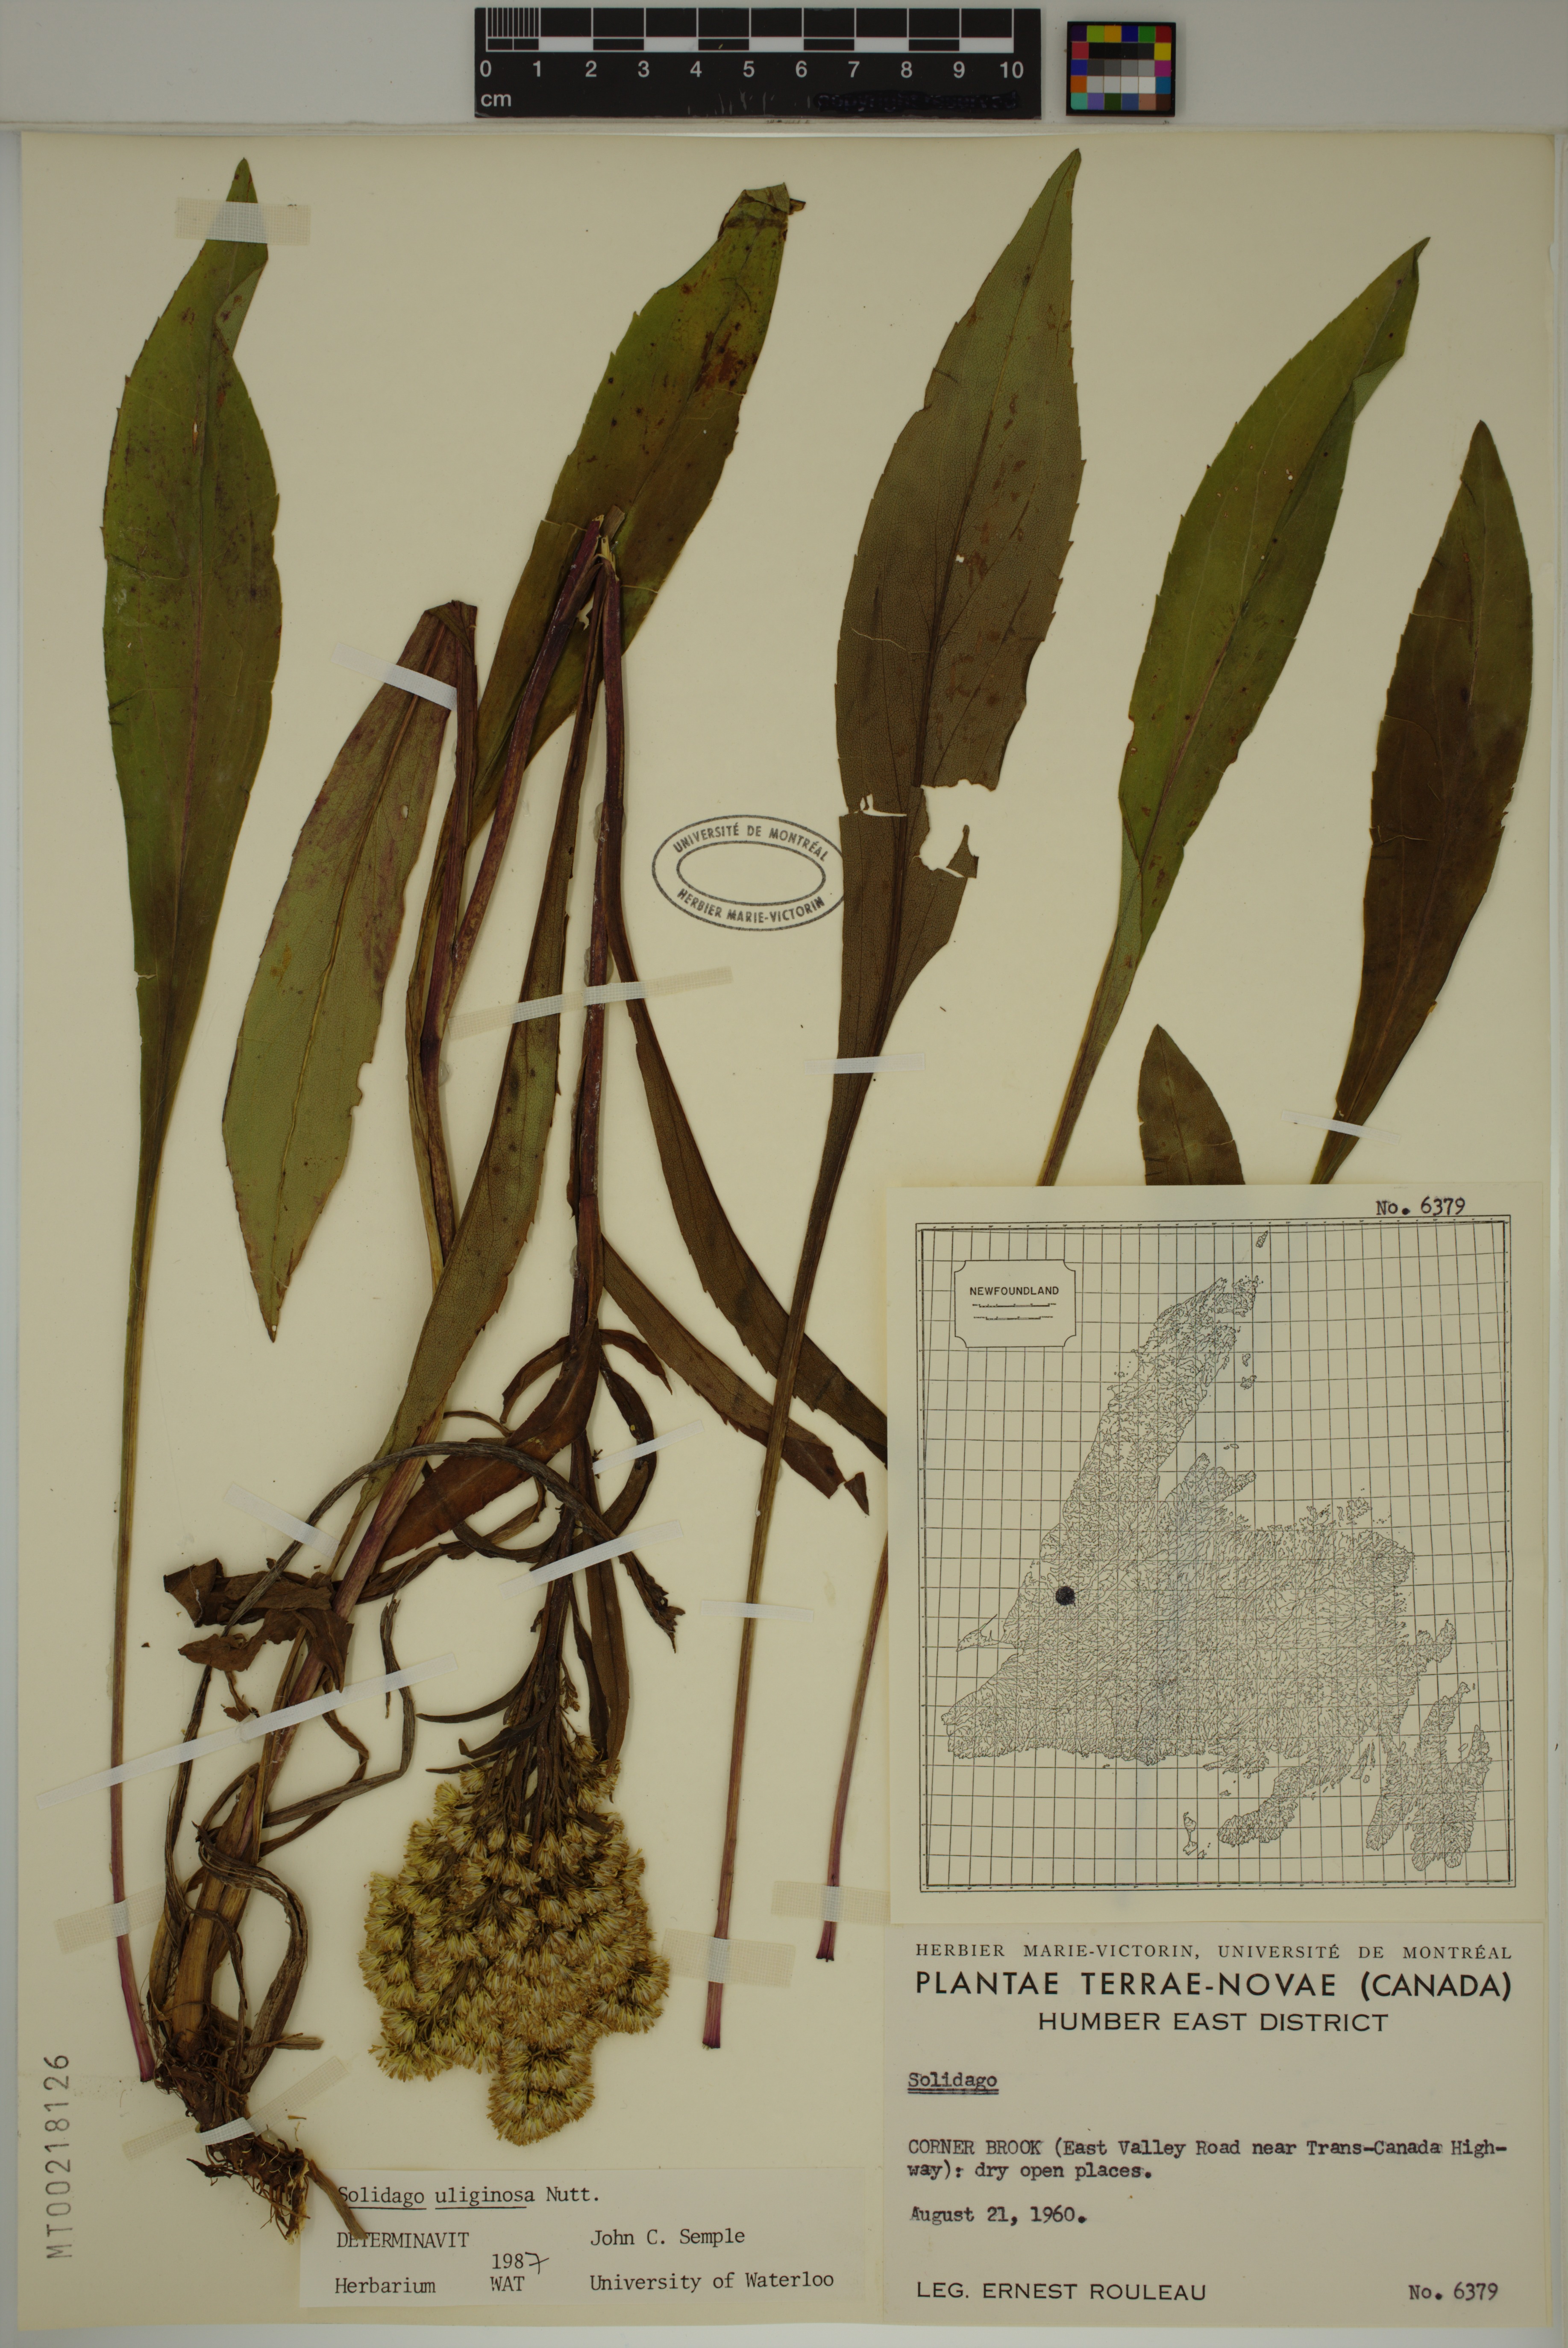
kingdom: Plantae
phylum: Tracheophyta
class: Magnoliopsida
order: Asterales
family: Asteraceae
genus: Solidago
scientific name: Solidago uliginosa
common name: Bog goldenrod
